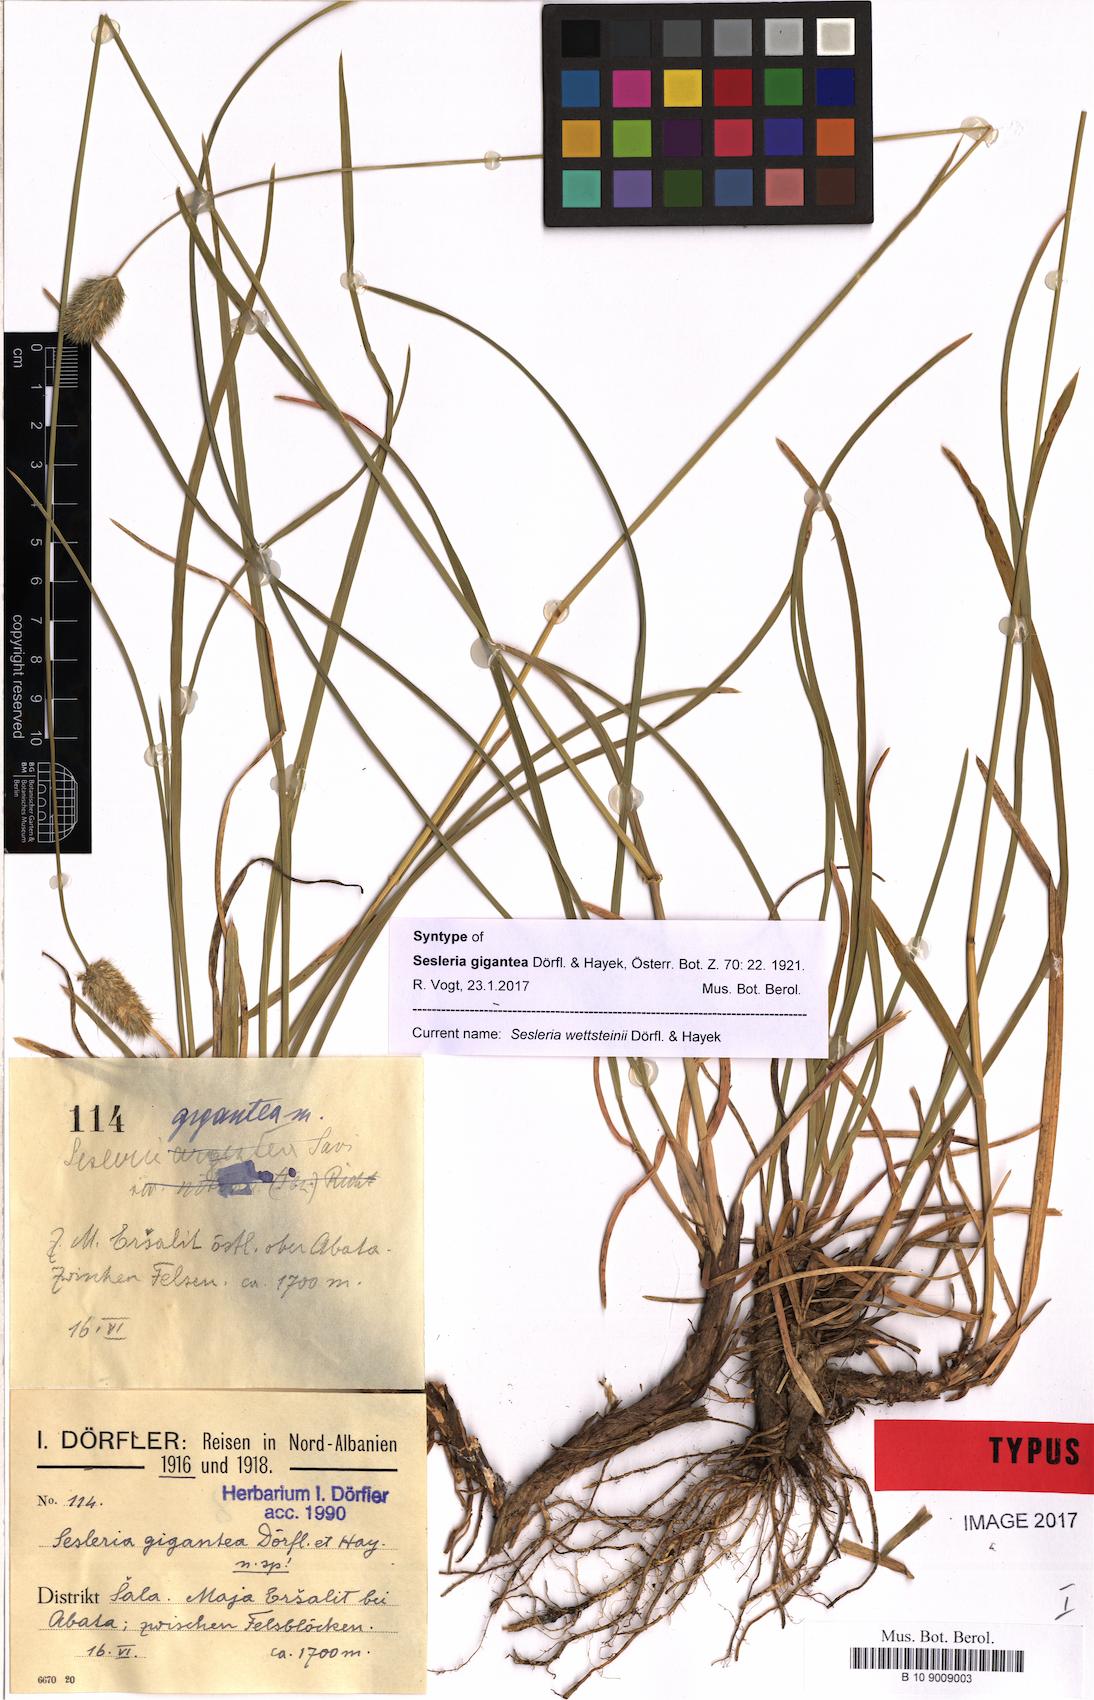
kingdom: Plantae
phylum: Tracheophyta
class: Liliopsida
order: Poales
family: Poaceae
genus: Sesleria
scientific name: Sesleria wettsteinii
